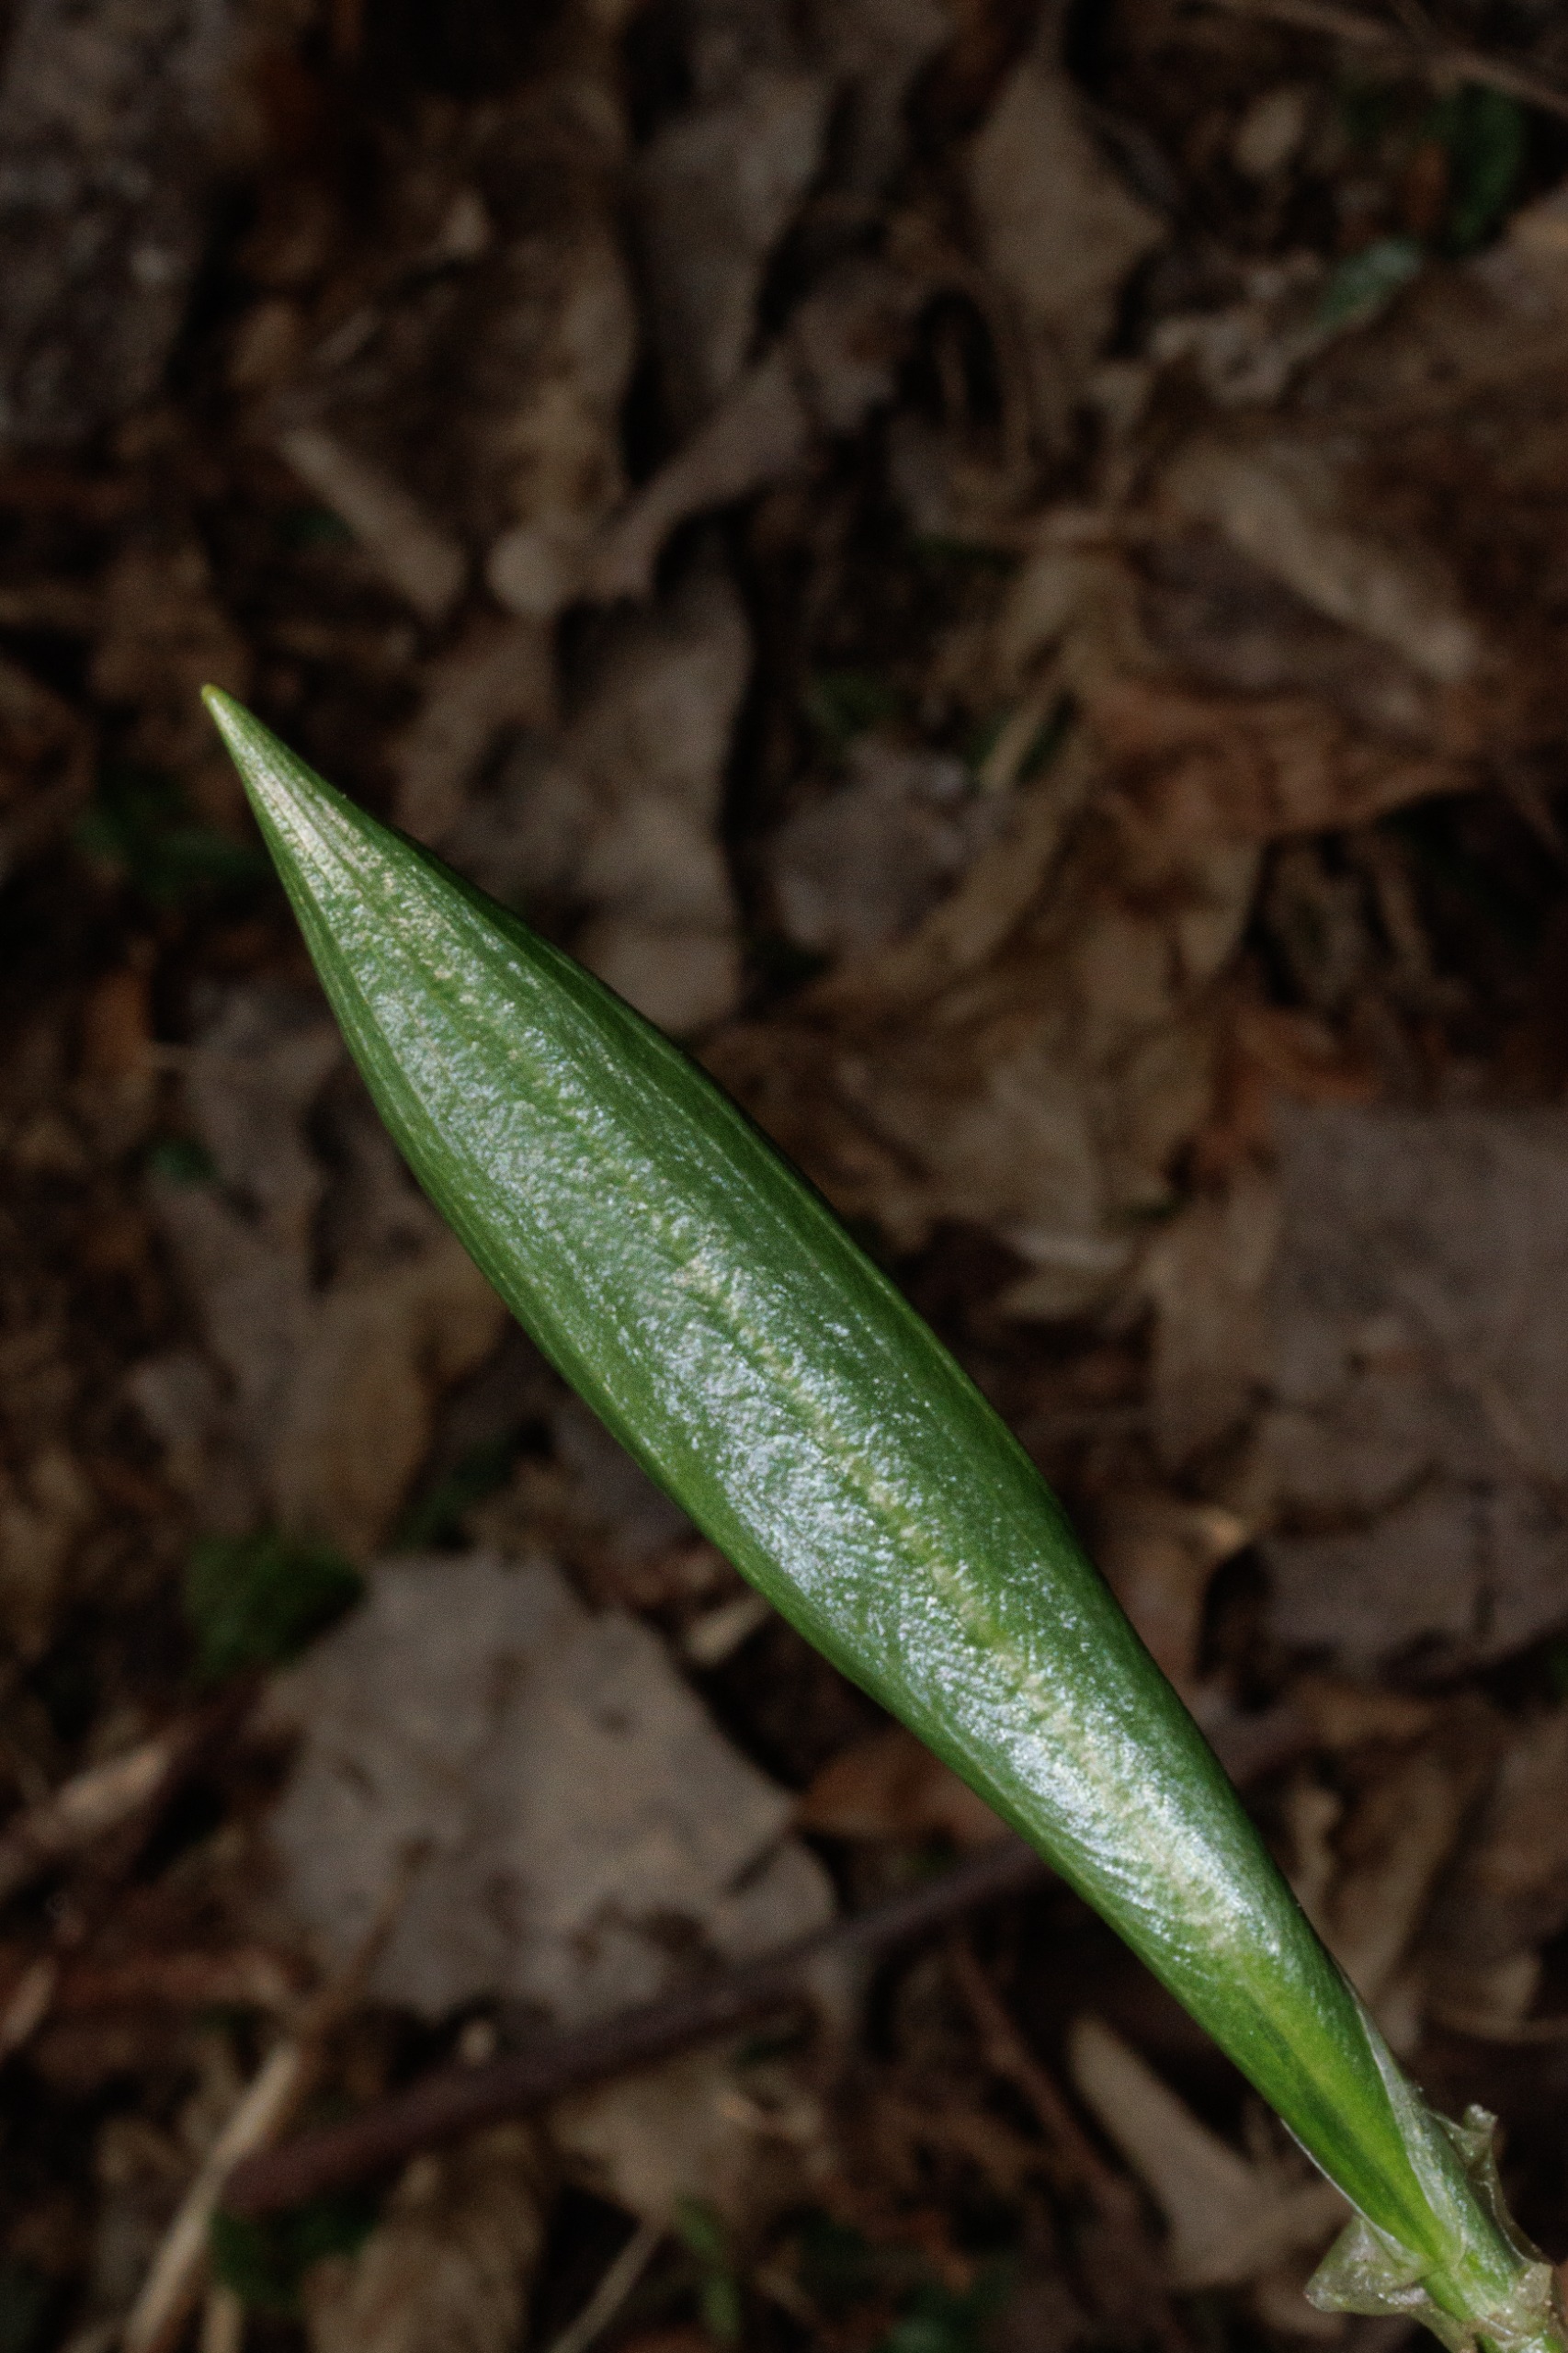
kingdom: Plantae
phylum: Tracheophyta
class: Liliopsida
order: Asparagales
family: Amaryllidaceae
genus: Allium
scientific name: Allium ursinum
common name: Rams-løg
